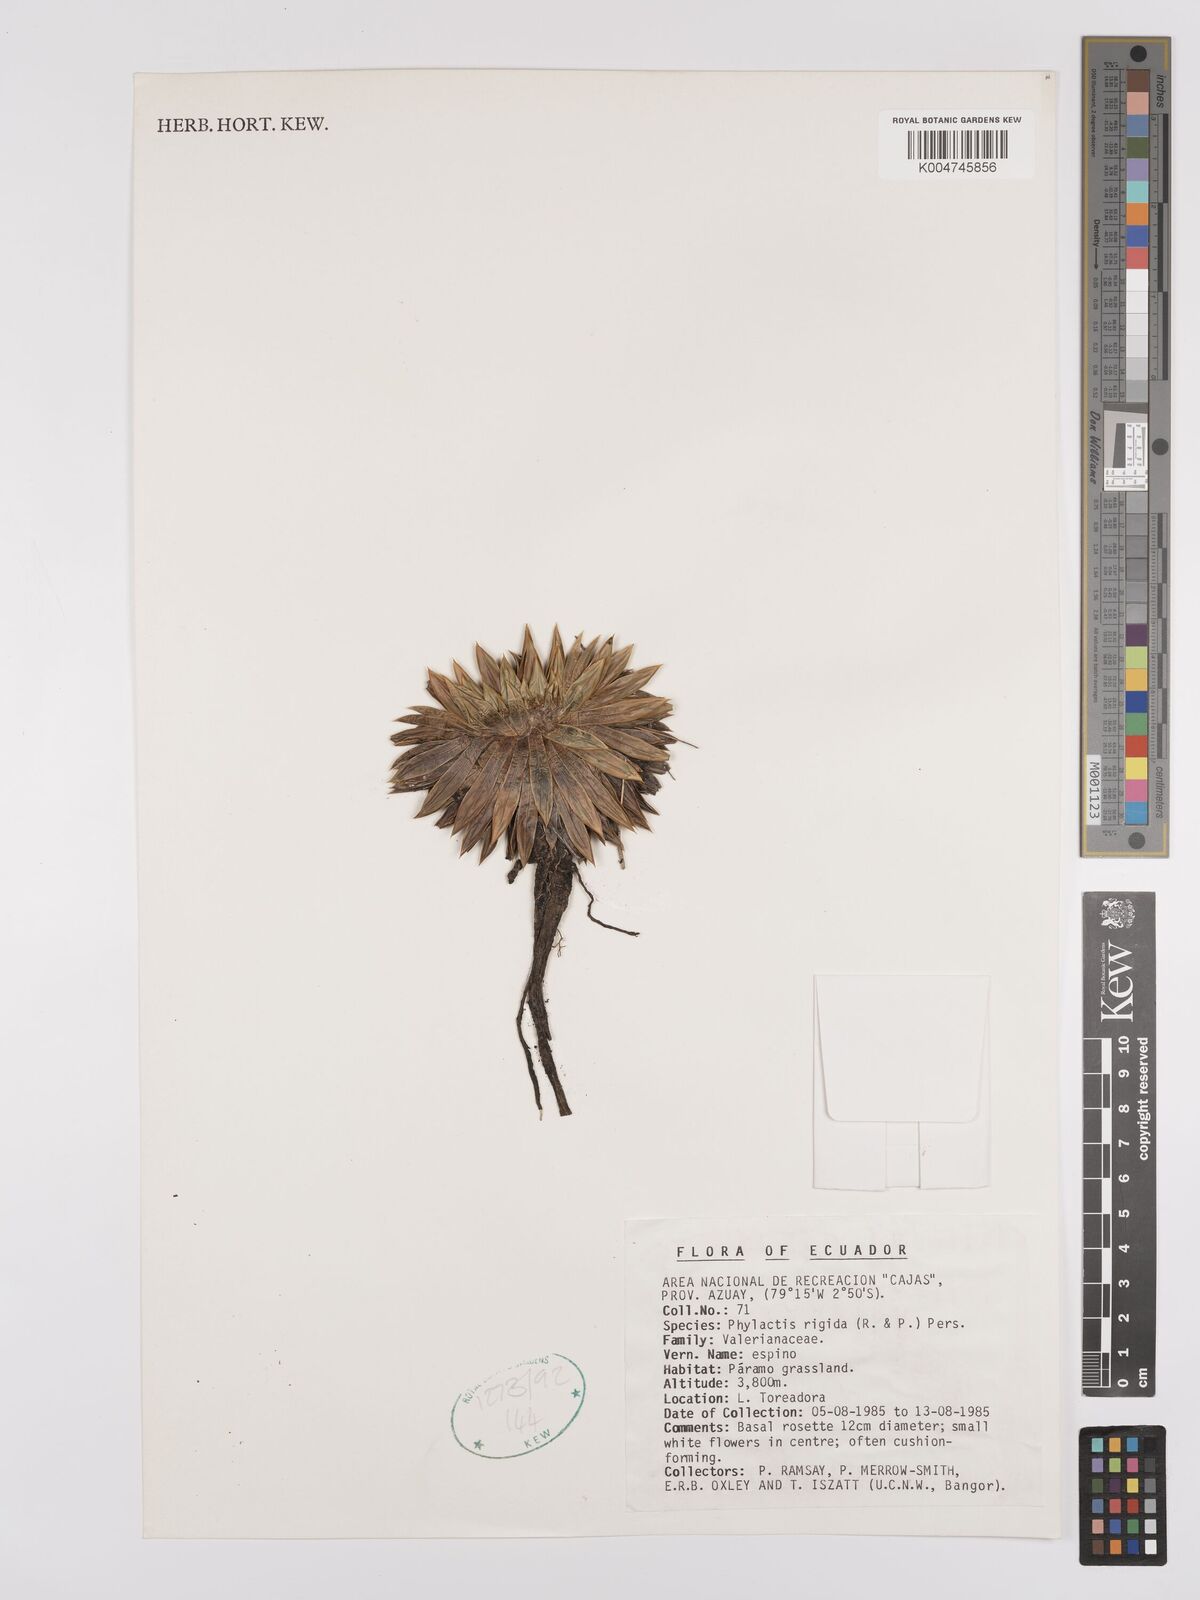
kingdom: Plantae
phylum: Tracheophyta
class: Magnoliopsida
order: Dipsacales
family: Caprifoliaceae
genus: Valeriana
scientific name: Valeriana rigida
